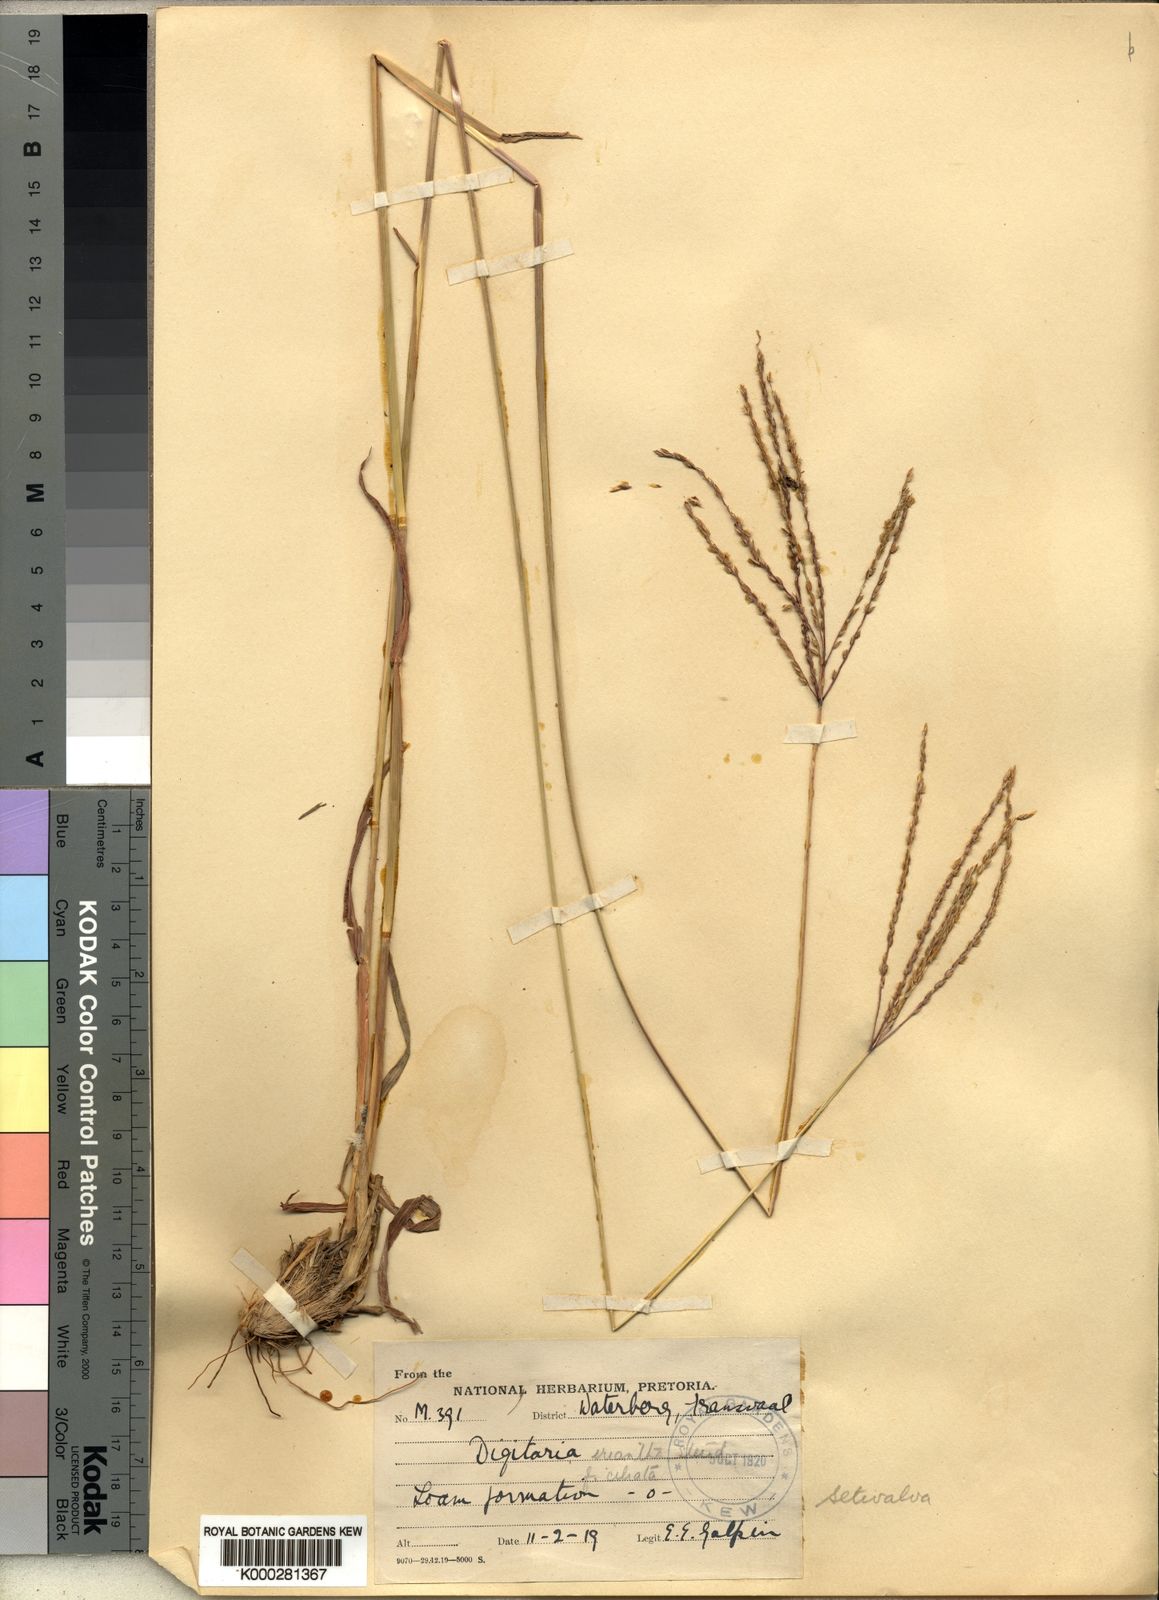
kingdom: Plantae
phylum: Tracheophyta
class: Liliopsida
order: Poales
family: Poaceae
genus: Digitaria
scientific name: Digitaria milanjiana
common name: Madagascar crabgrass
